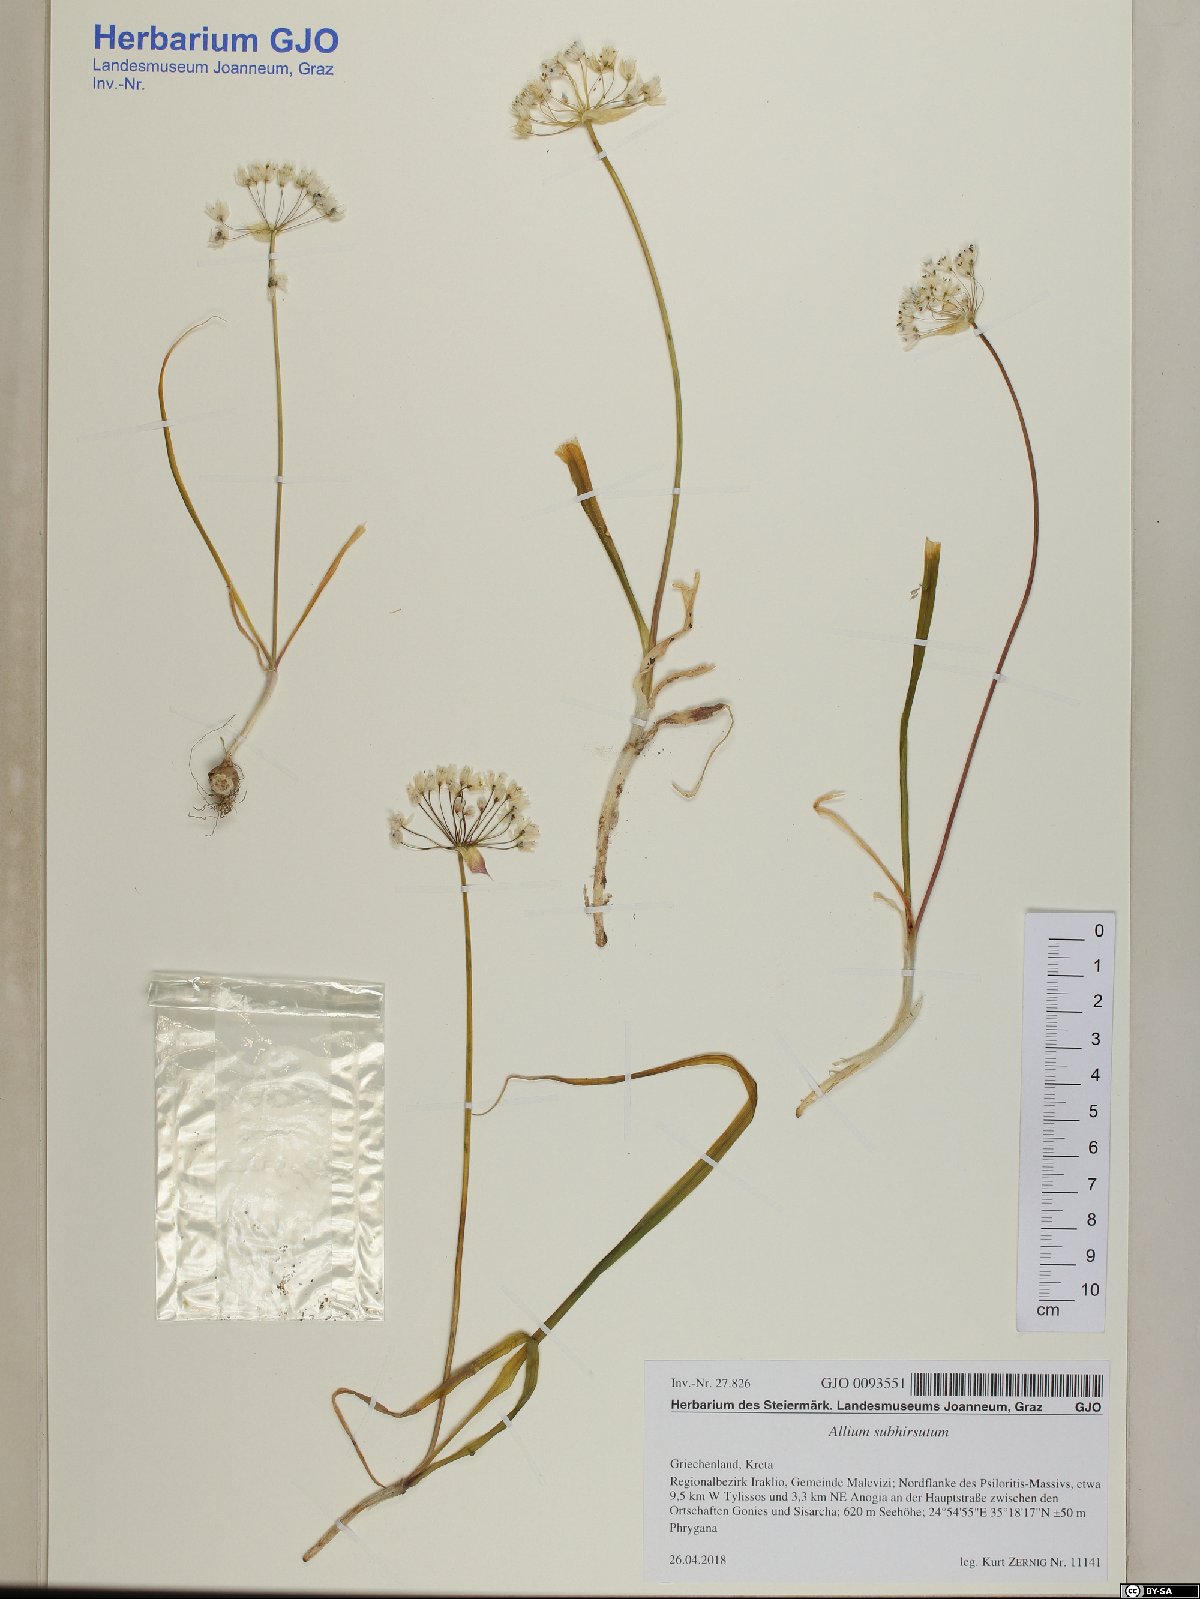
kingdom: Plantae
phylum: Tracheophyta
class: Liliopsida
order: Asparagales
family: Amaryllidaceae
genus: Allium
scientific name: Allium subhirsutum
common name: Hairy garlic
